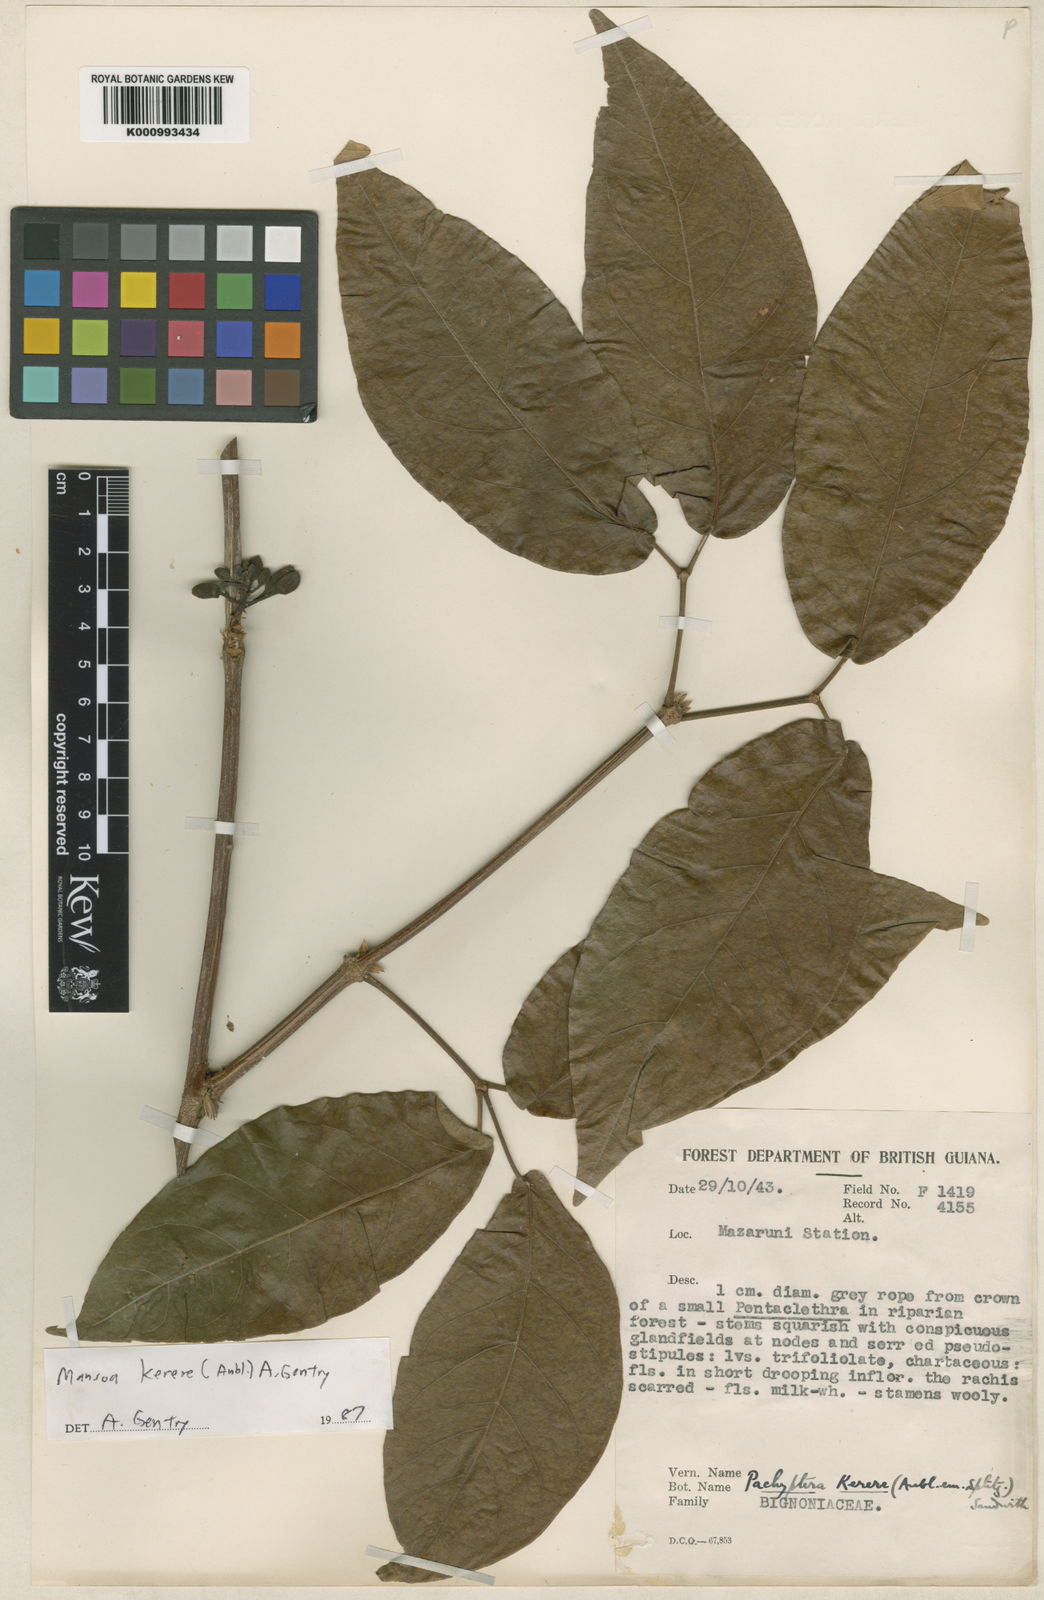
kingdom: Plantae
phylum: Tracheophyta
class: Magnoliopsida
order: Lamiales
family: Bignoniaceae
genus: Pachyptera
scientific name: Pachyptera kerere
